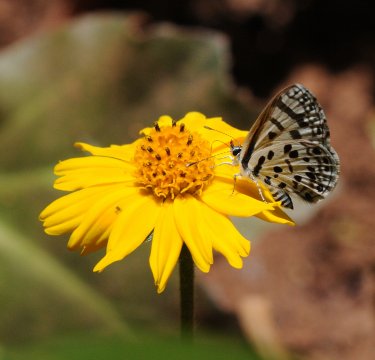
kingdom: Animalia
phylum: Arthropoda
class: Insecta
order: Lepidoptera
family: Lycaenidae
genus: Azanus
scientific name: Azanus natalensis
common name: Natal Babul Blue
